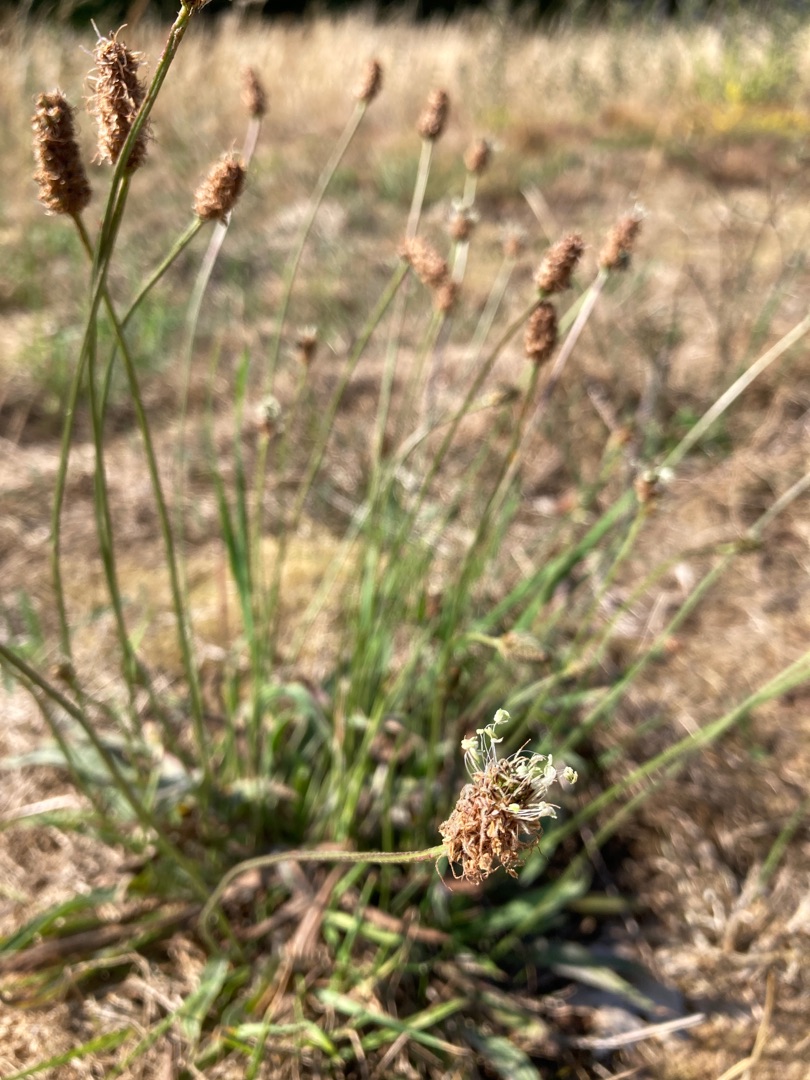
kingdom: Plantae
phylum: Tracheophyta
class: Magnoliopsida
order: Lamiales
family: Plantaginaceae
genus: Plantago
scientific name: Plantago lanceolata
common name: Lancet-vejbred
